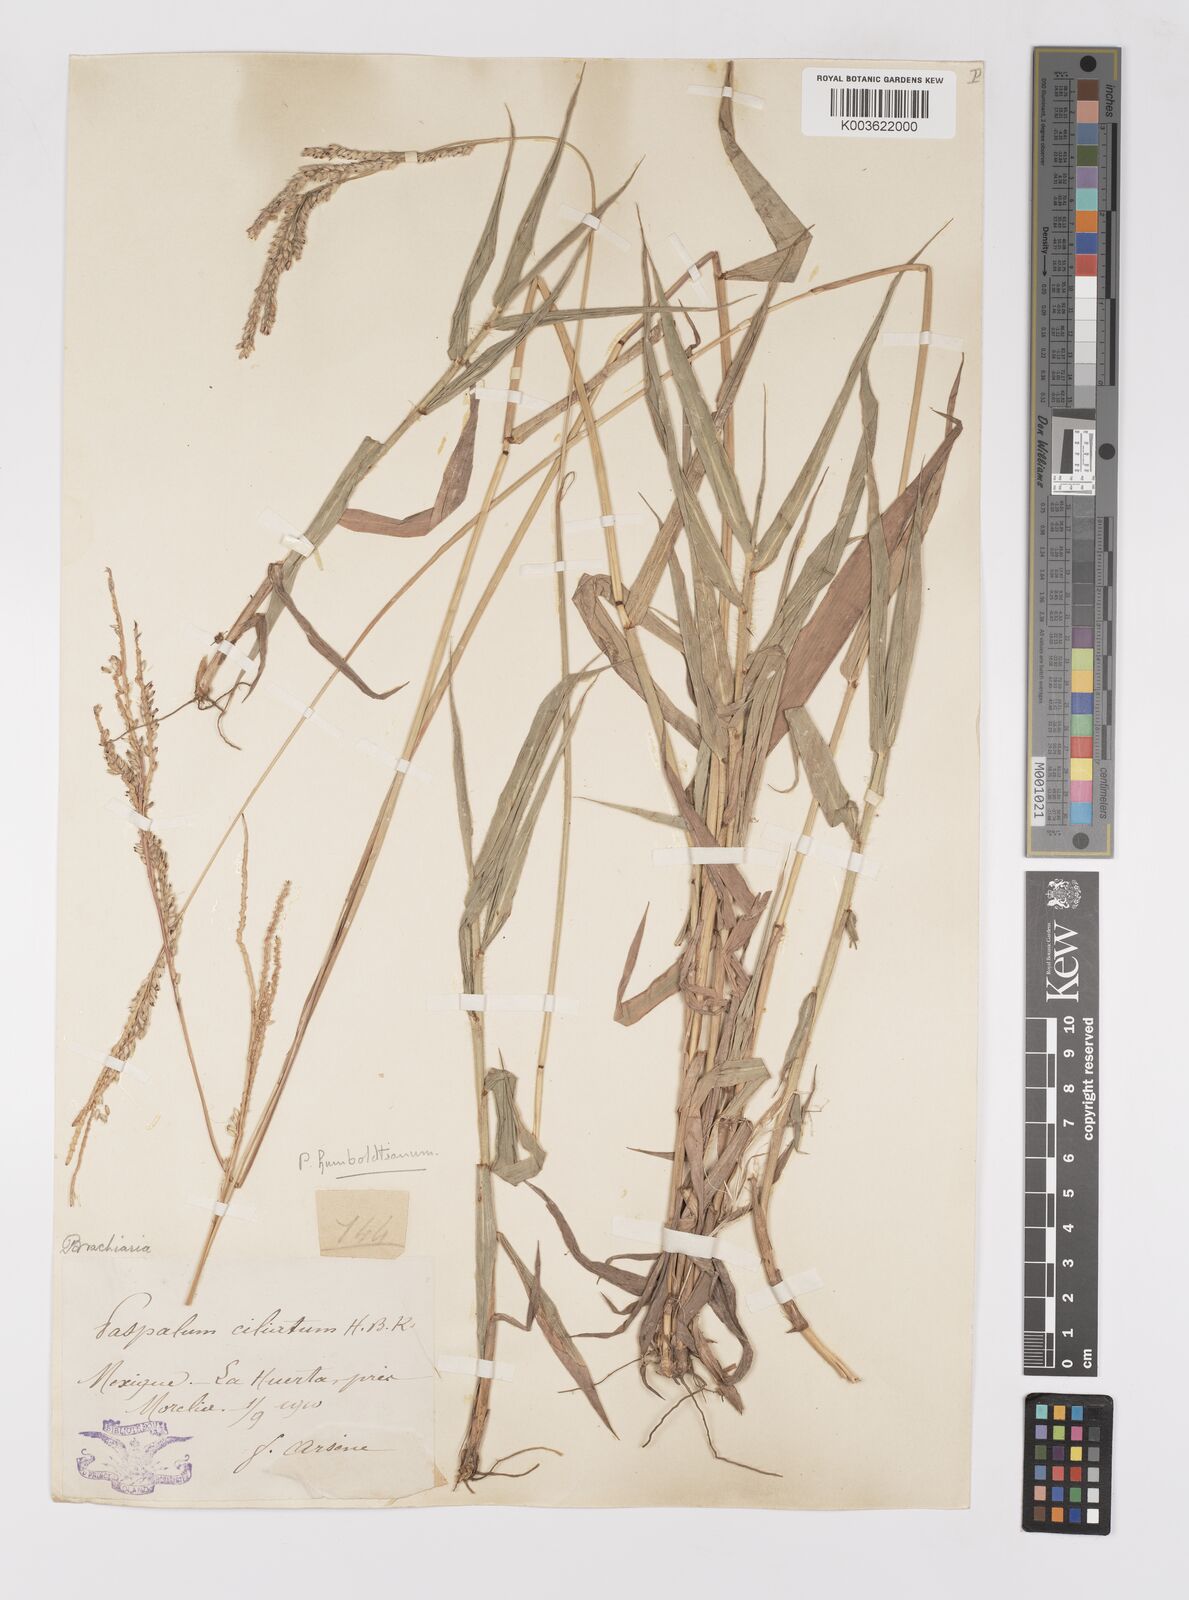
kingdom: Plantae
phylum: Tracheophyta
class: Liliopsida
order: Poales
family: Poaceae
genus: Paspalum
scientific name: Paspalum humboldtianum
